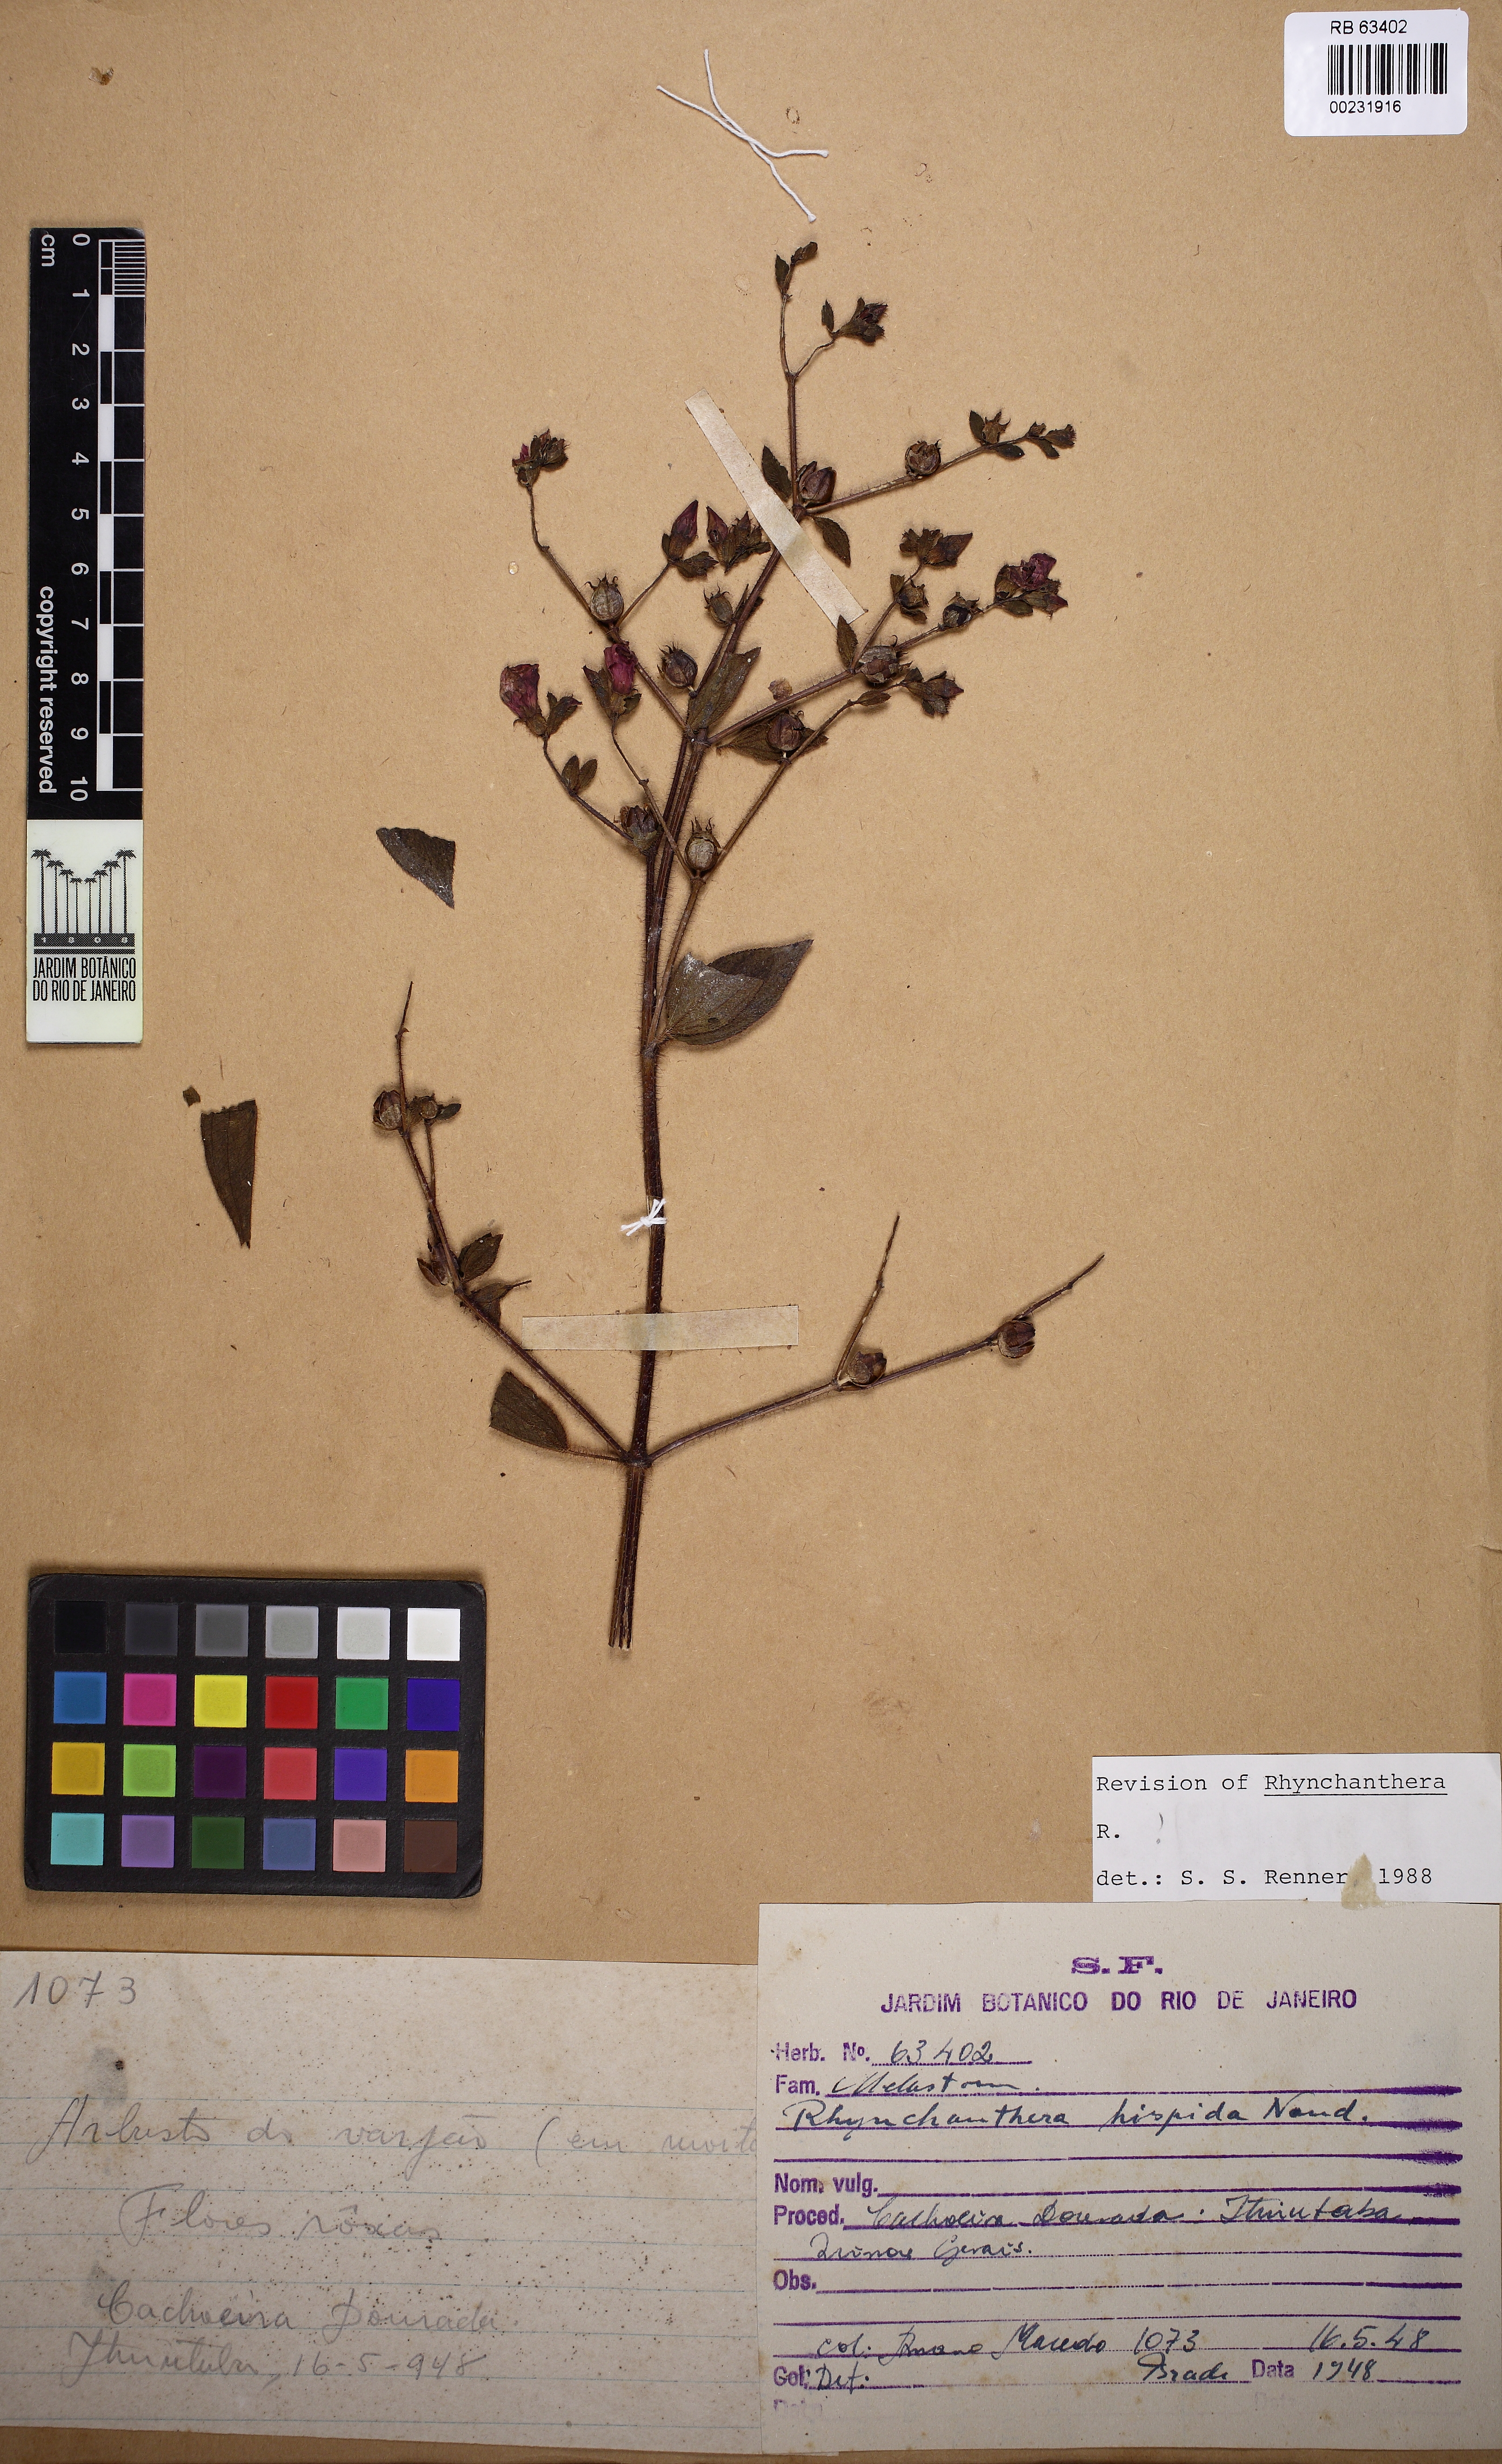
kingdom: Plantae
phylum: Tracheophyta
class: Magnoliopsida
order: Myrtales
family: Melastomataceae
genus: Rhynchanthera
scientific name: Rhynchanthera hispida
